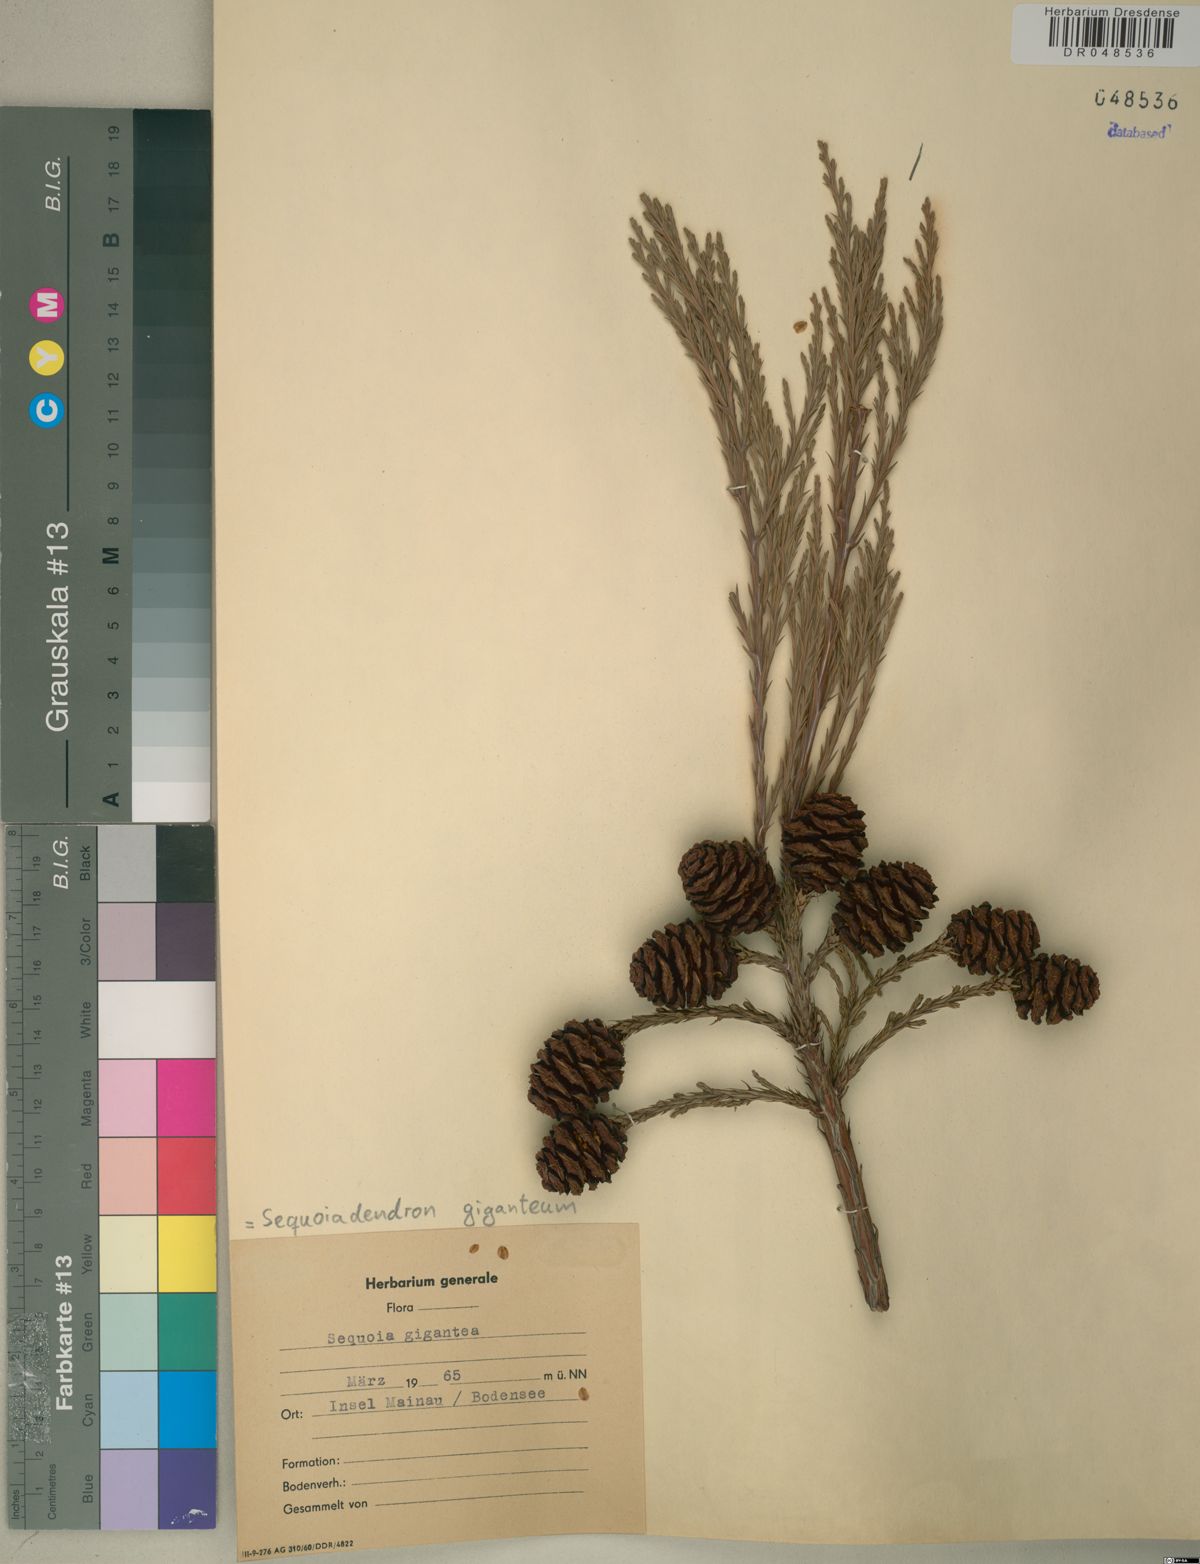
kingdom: Plantae
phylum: Tracheophyta
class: Pinopsida
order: Pinales
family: Cupressaceae
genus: Sequoiadendron
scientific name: Sequoiadendron giganteum
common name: Wellingtonia
